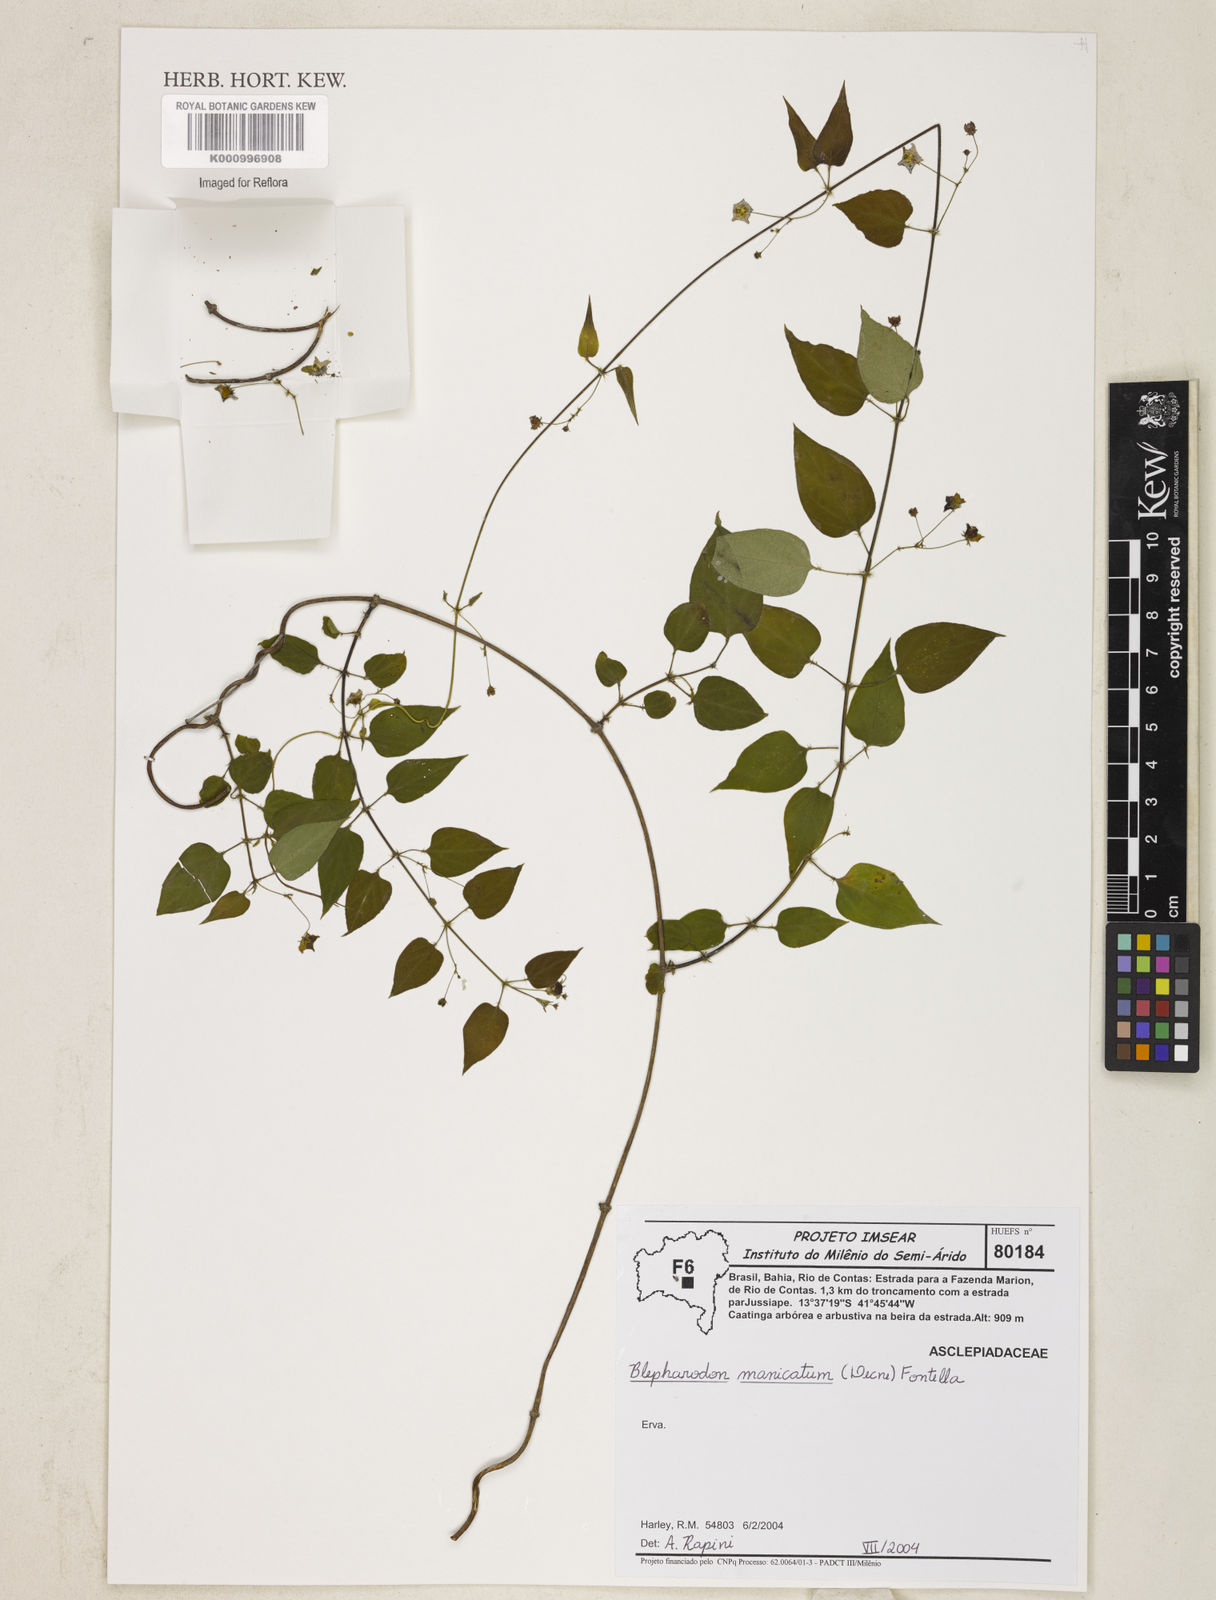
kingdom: Plantae
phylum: Tracheophyta
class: Magnoliopsida
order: Gentianales
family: Apocynaceae
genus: Blepharodon
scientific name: Blepharodon manicatum
